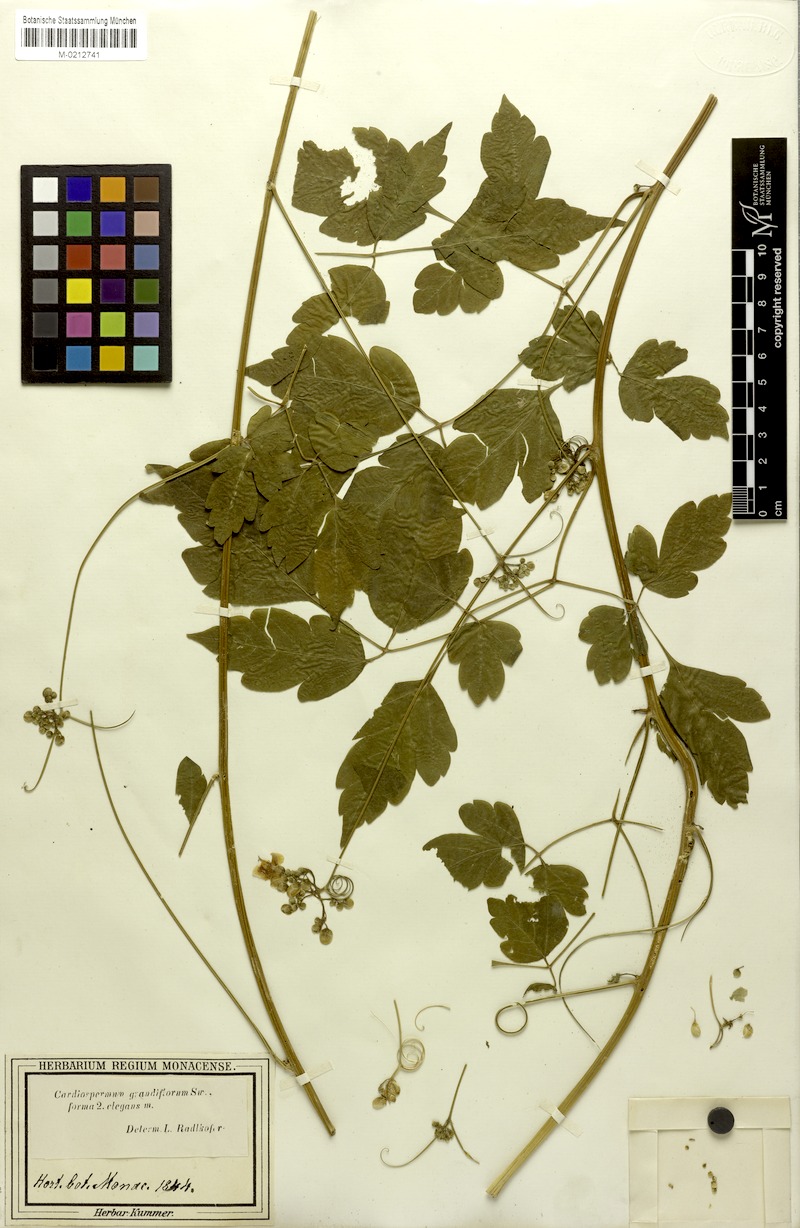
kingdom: Plantae
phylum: Tracheophyta
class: Magnoliopsida
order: Sapindales
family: Sapindaceae
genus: Cardiospermum
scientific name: Cardiospermum grandiflorum
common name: Balloon vine
